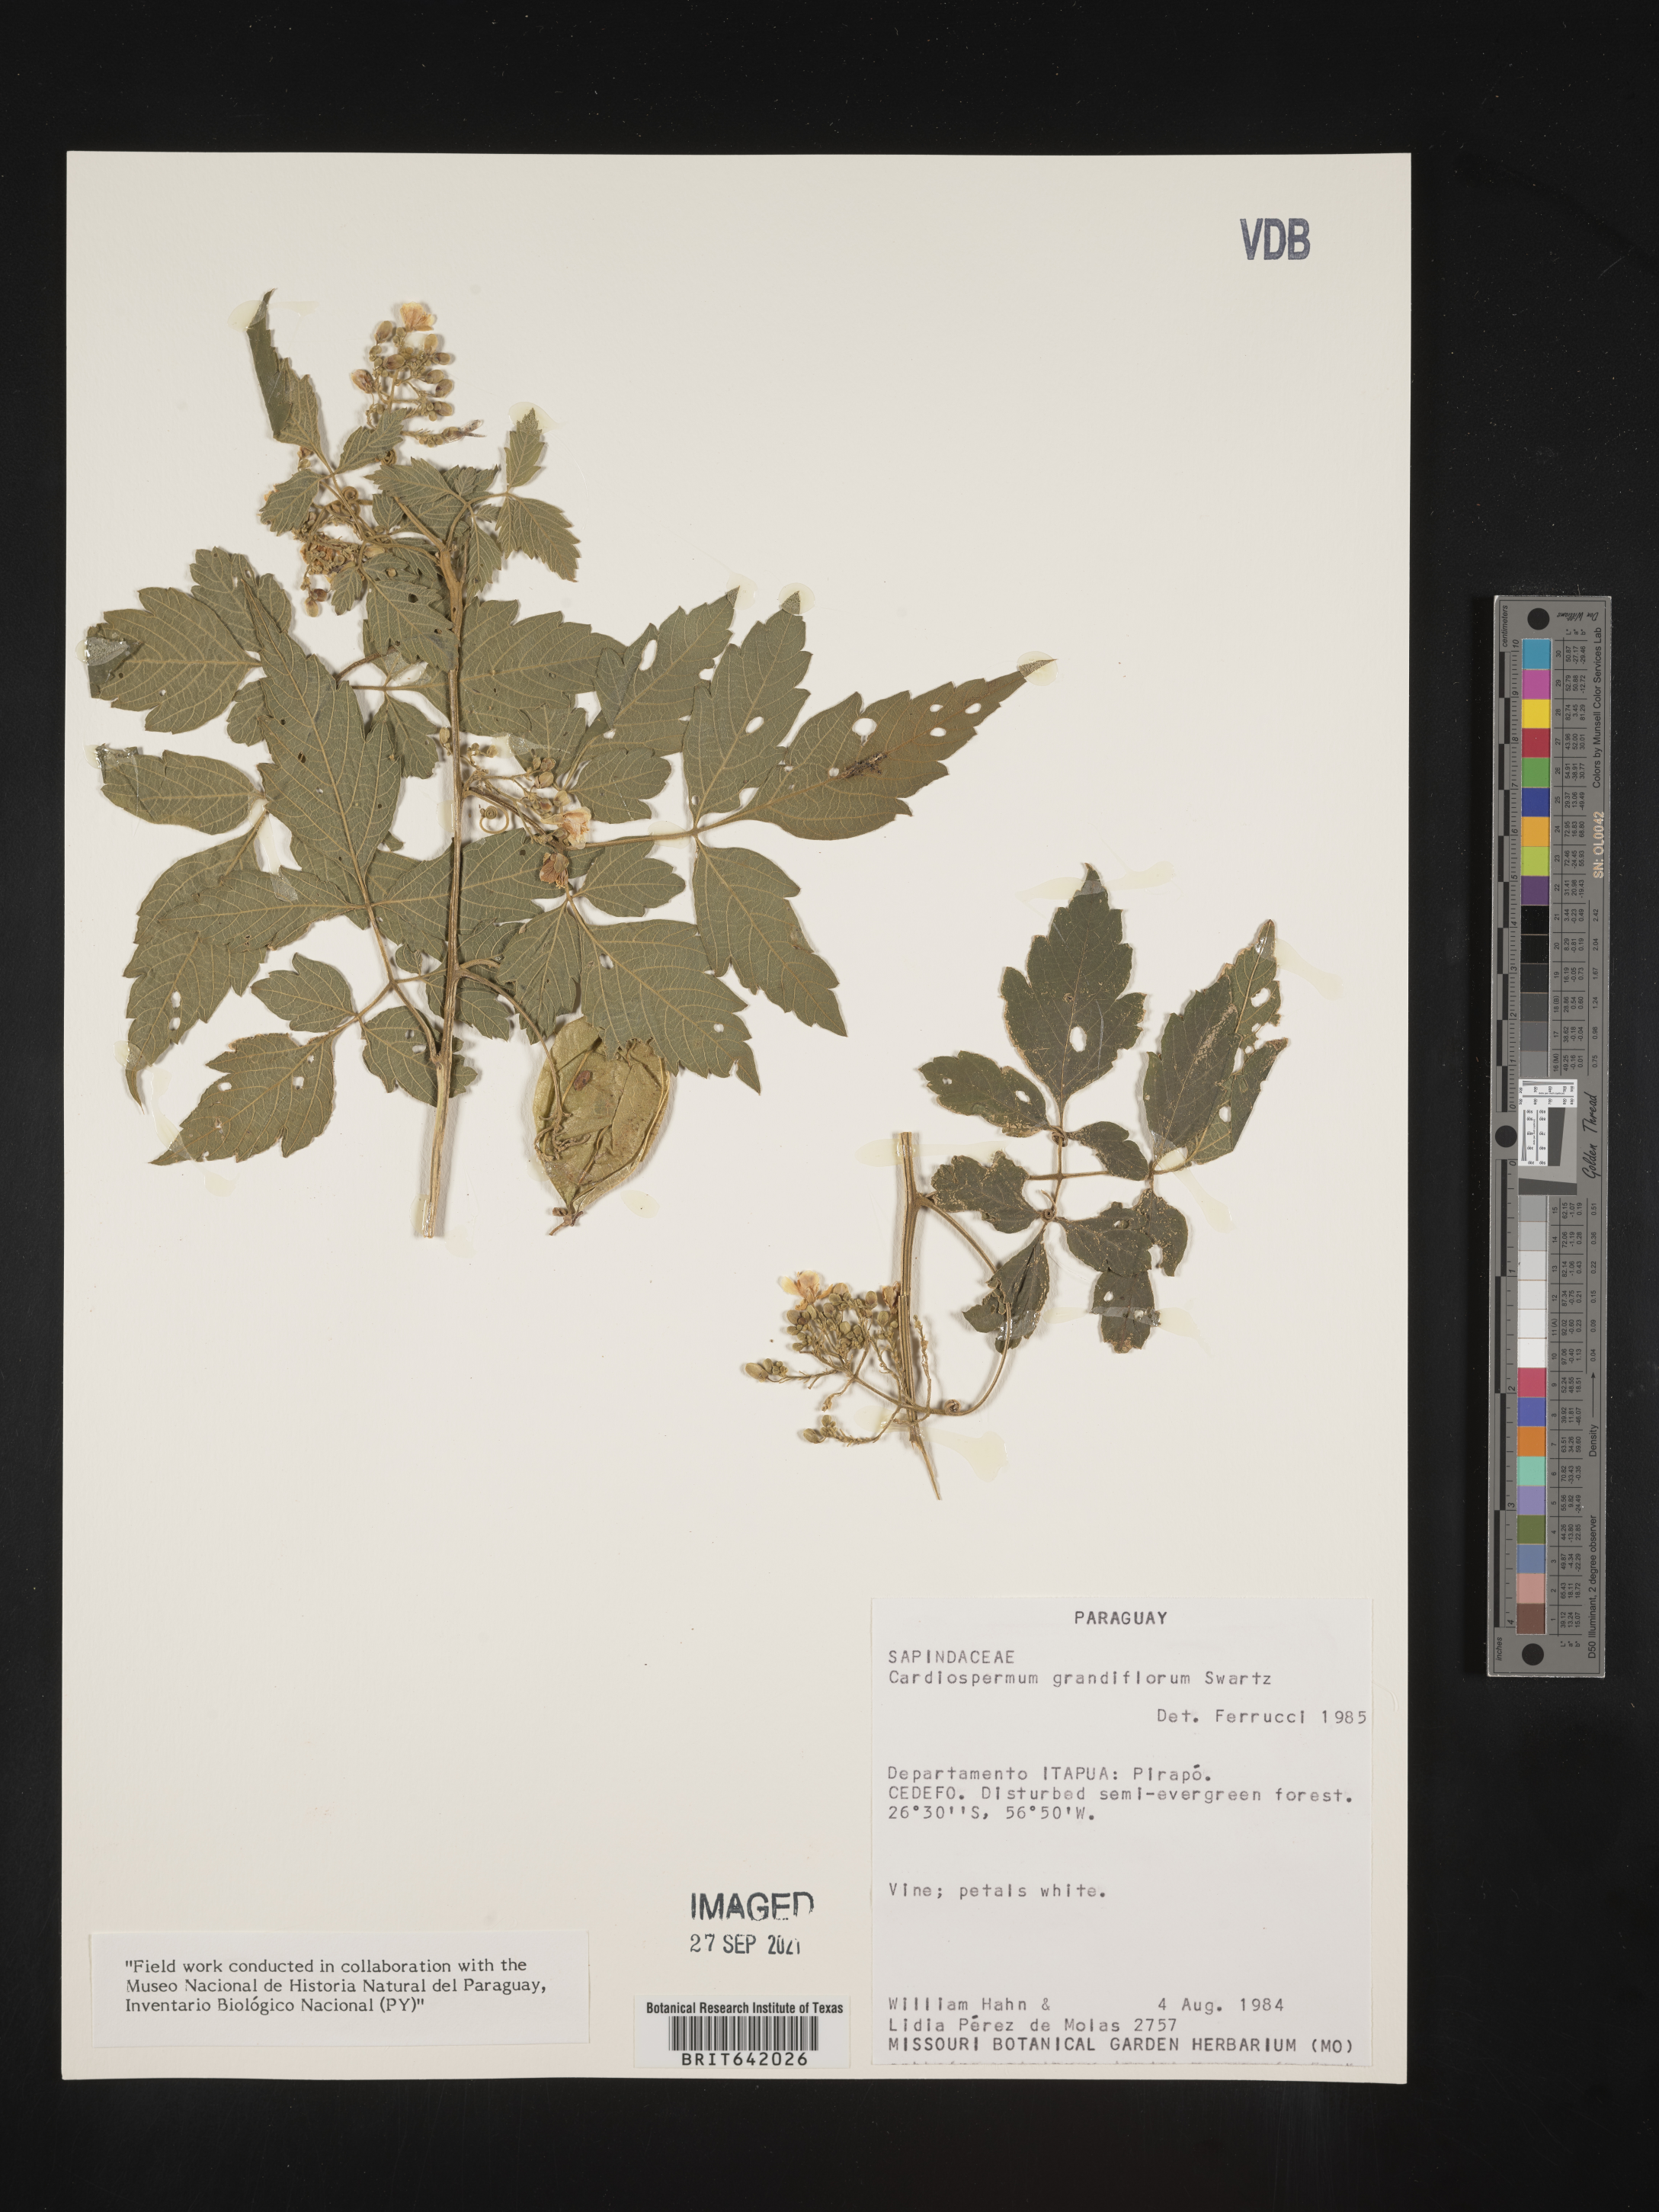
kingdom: Plantae
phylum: Tracheophyta
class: Magnoliopsida
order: Sapindales
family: Sapindaceae
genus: Cardiospermum
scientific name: Cardiospermum
